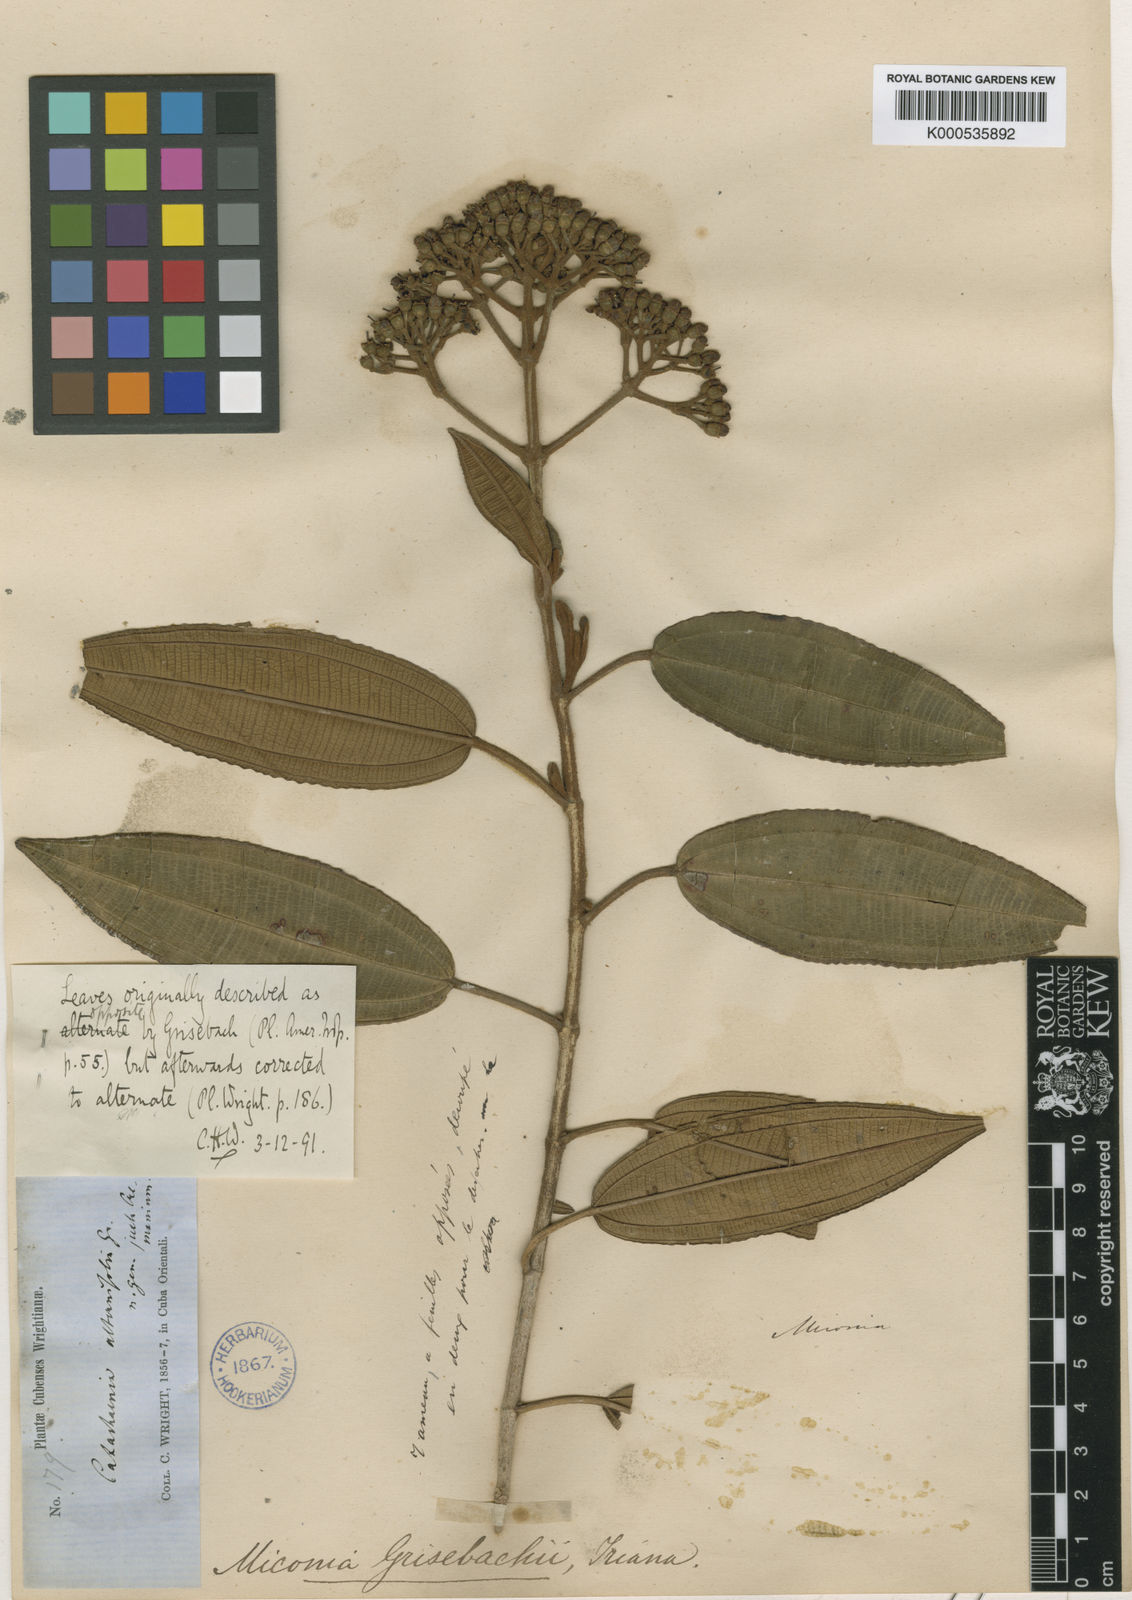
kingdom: Plantae
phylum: Tracheophyta
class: Magnoliopsida
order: Myrtales
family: Melastomataceae
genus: Miconia
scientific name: Miconia alternifolia
